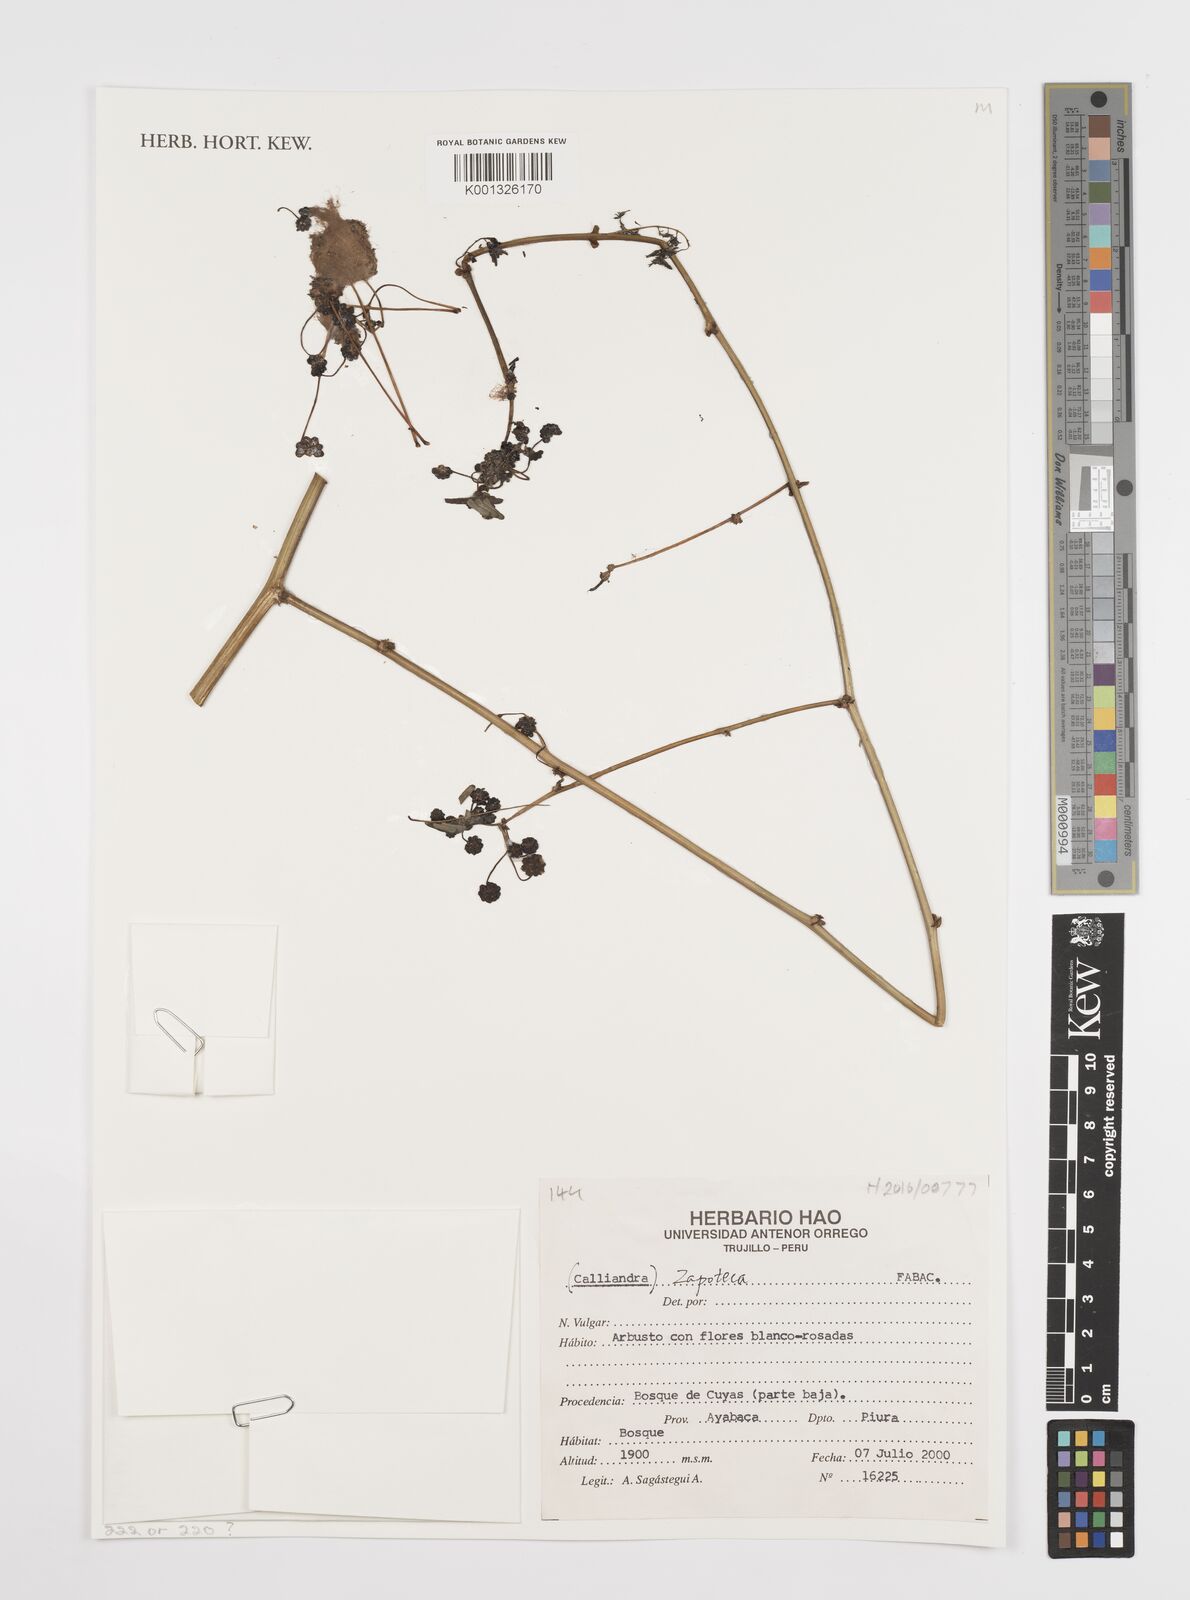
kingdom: Plantae
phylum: Tracheophyta
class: Magnoliopsida
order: Fabales
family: Fabaceae
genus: Zapoteca
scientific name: Zapoteca
